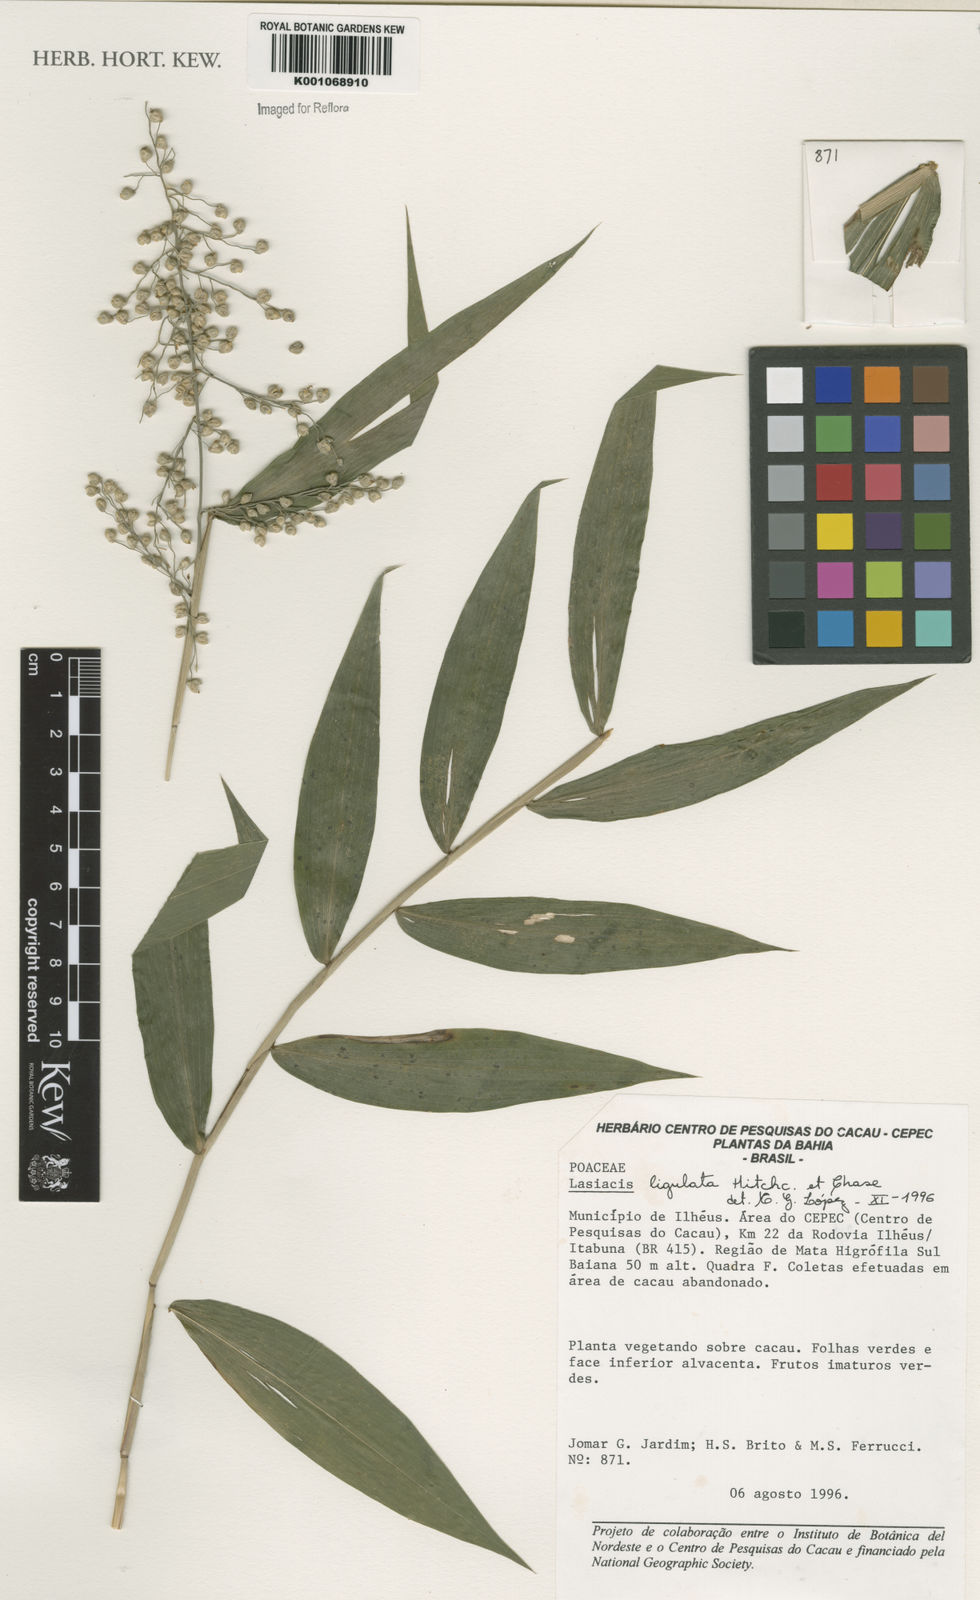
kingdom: Plantae
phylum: Tracheophyta
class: Liliopsida
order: Poales
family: Poaceae
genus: Lasiacis
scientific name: Lasiacis ligulata
